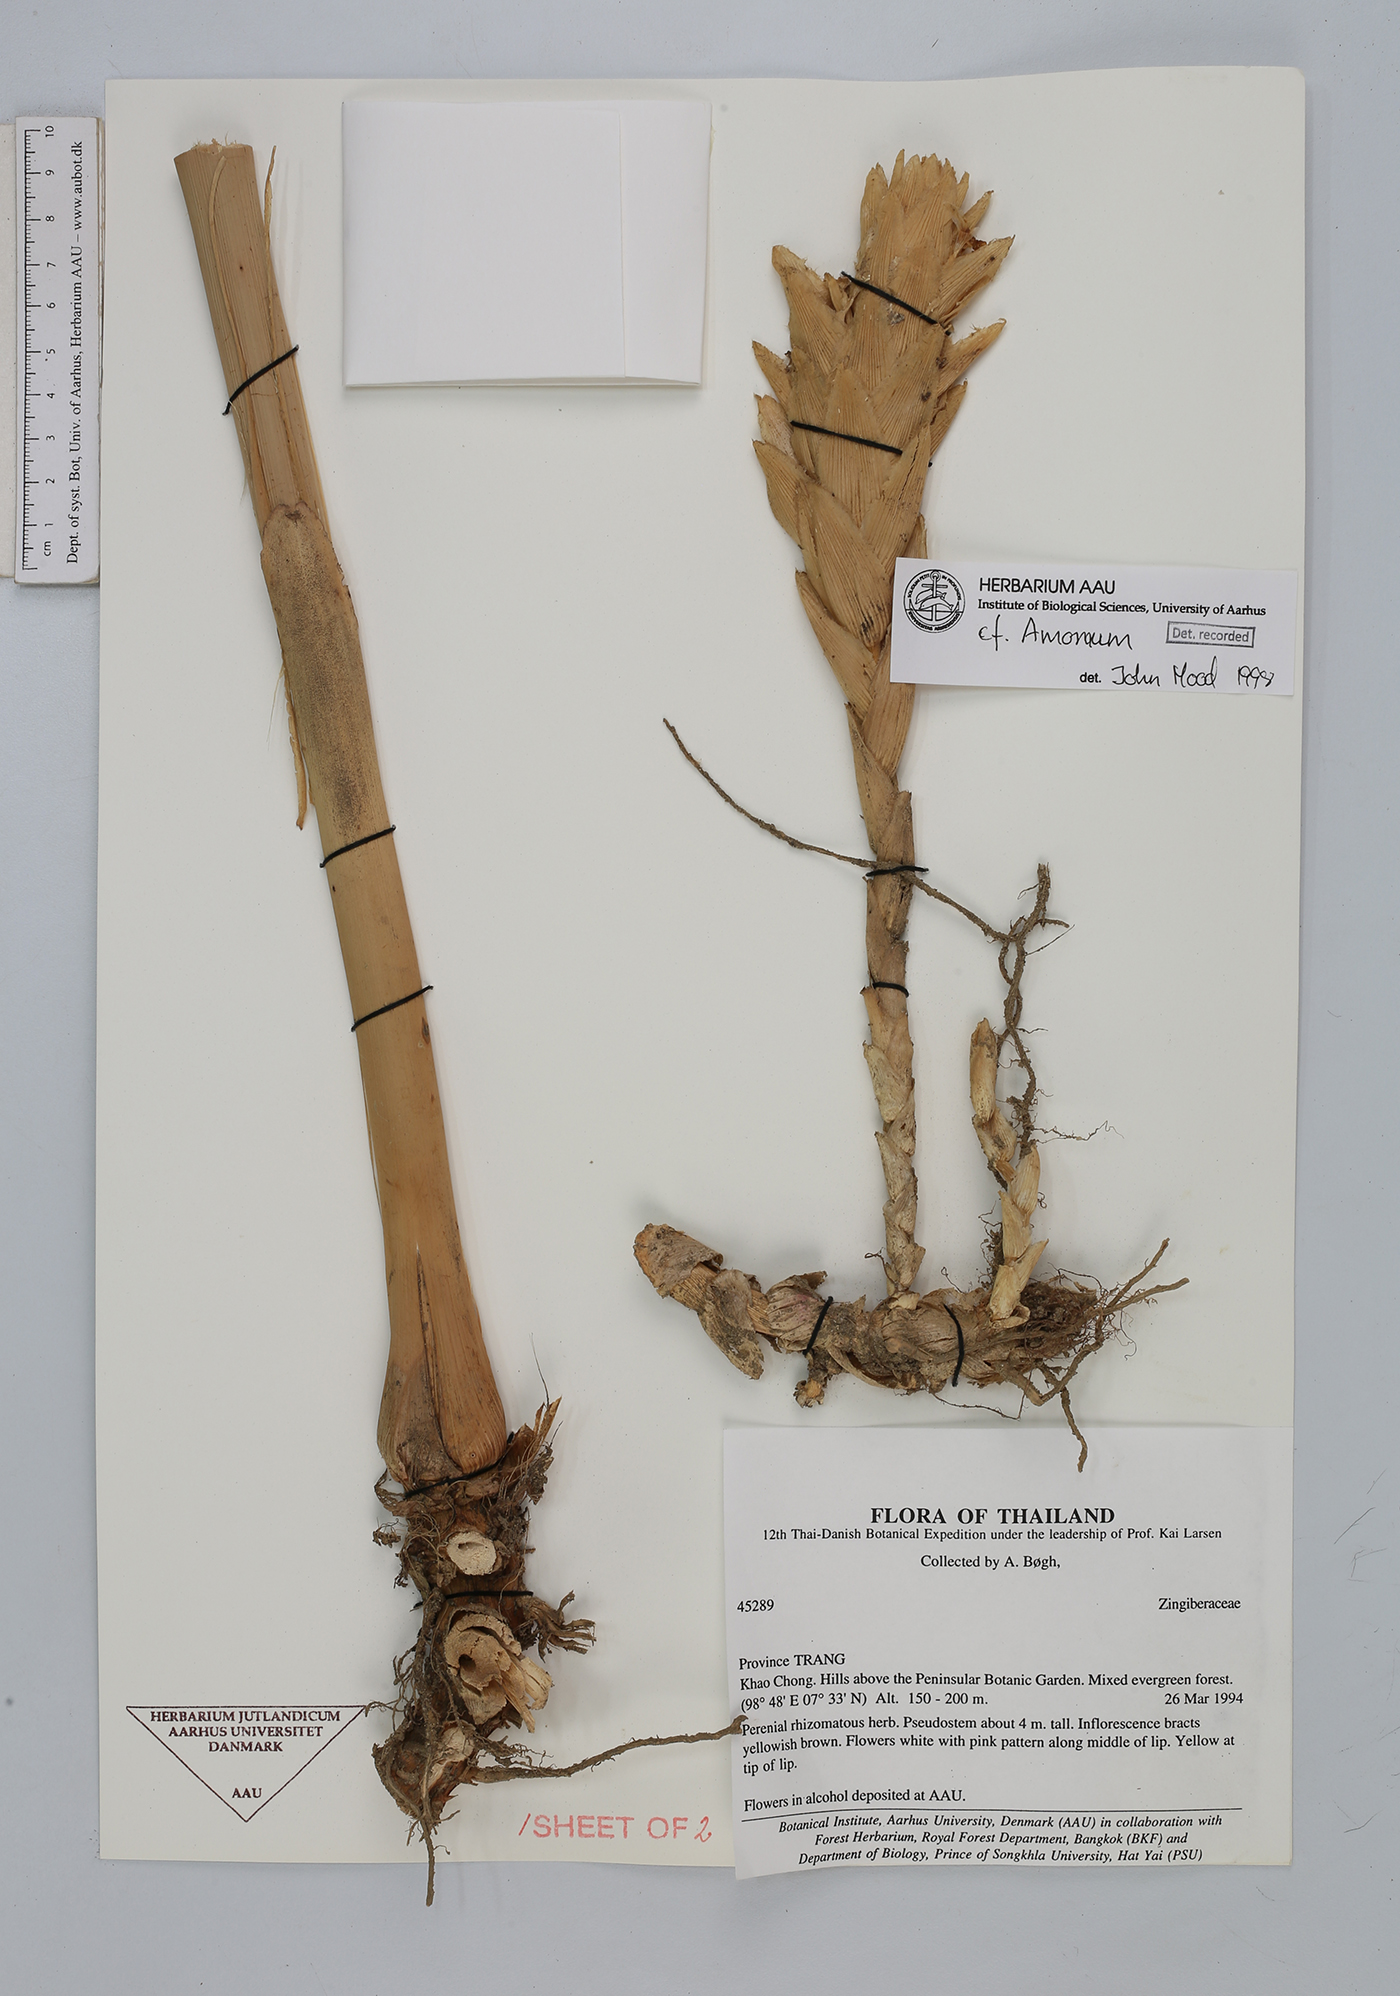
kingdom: Plantae
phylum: Tracheophyta
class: Liliopsida
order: Zingiberales
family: Zingiberaceae
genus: Amomum
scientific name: Amomum
